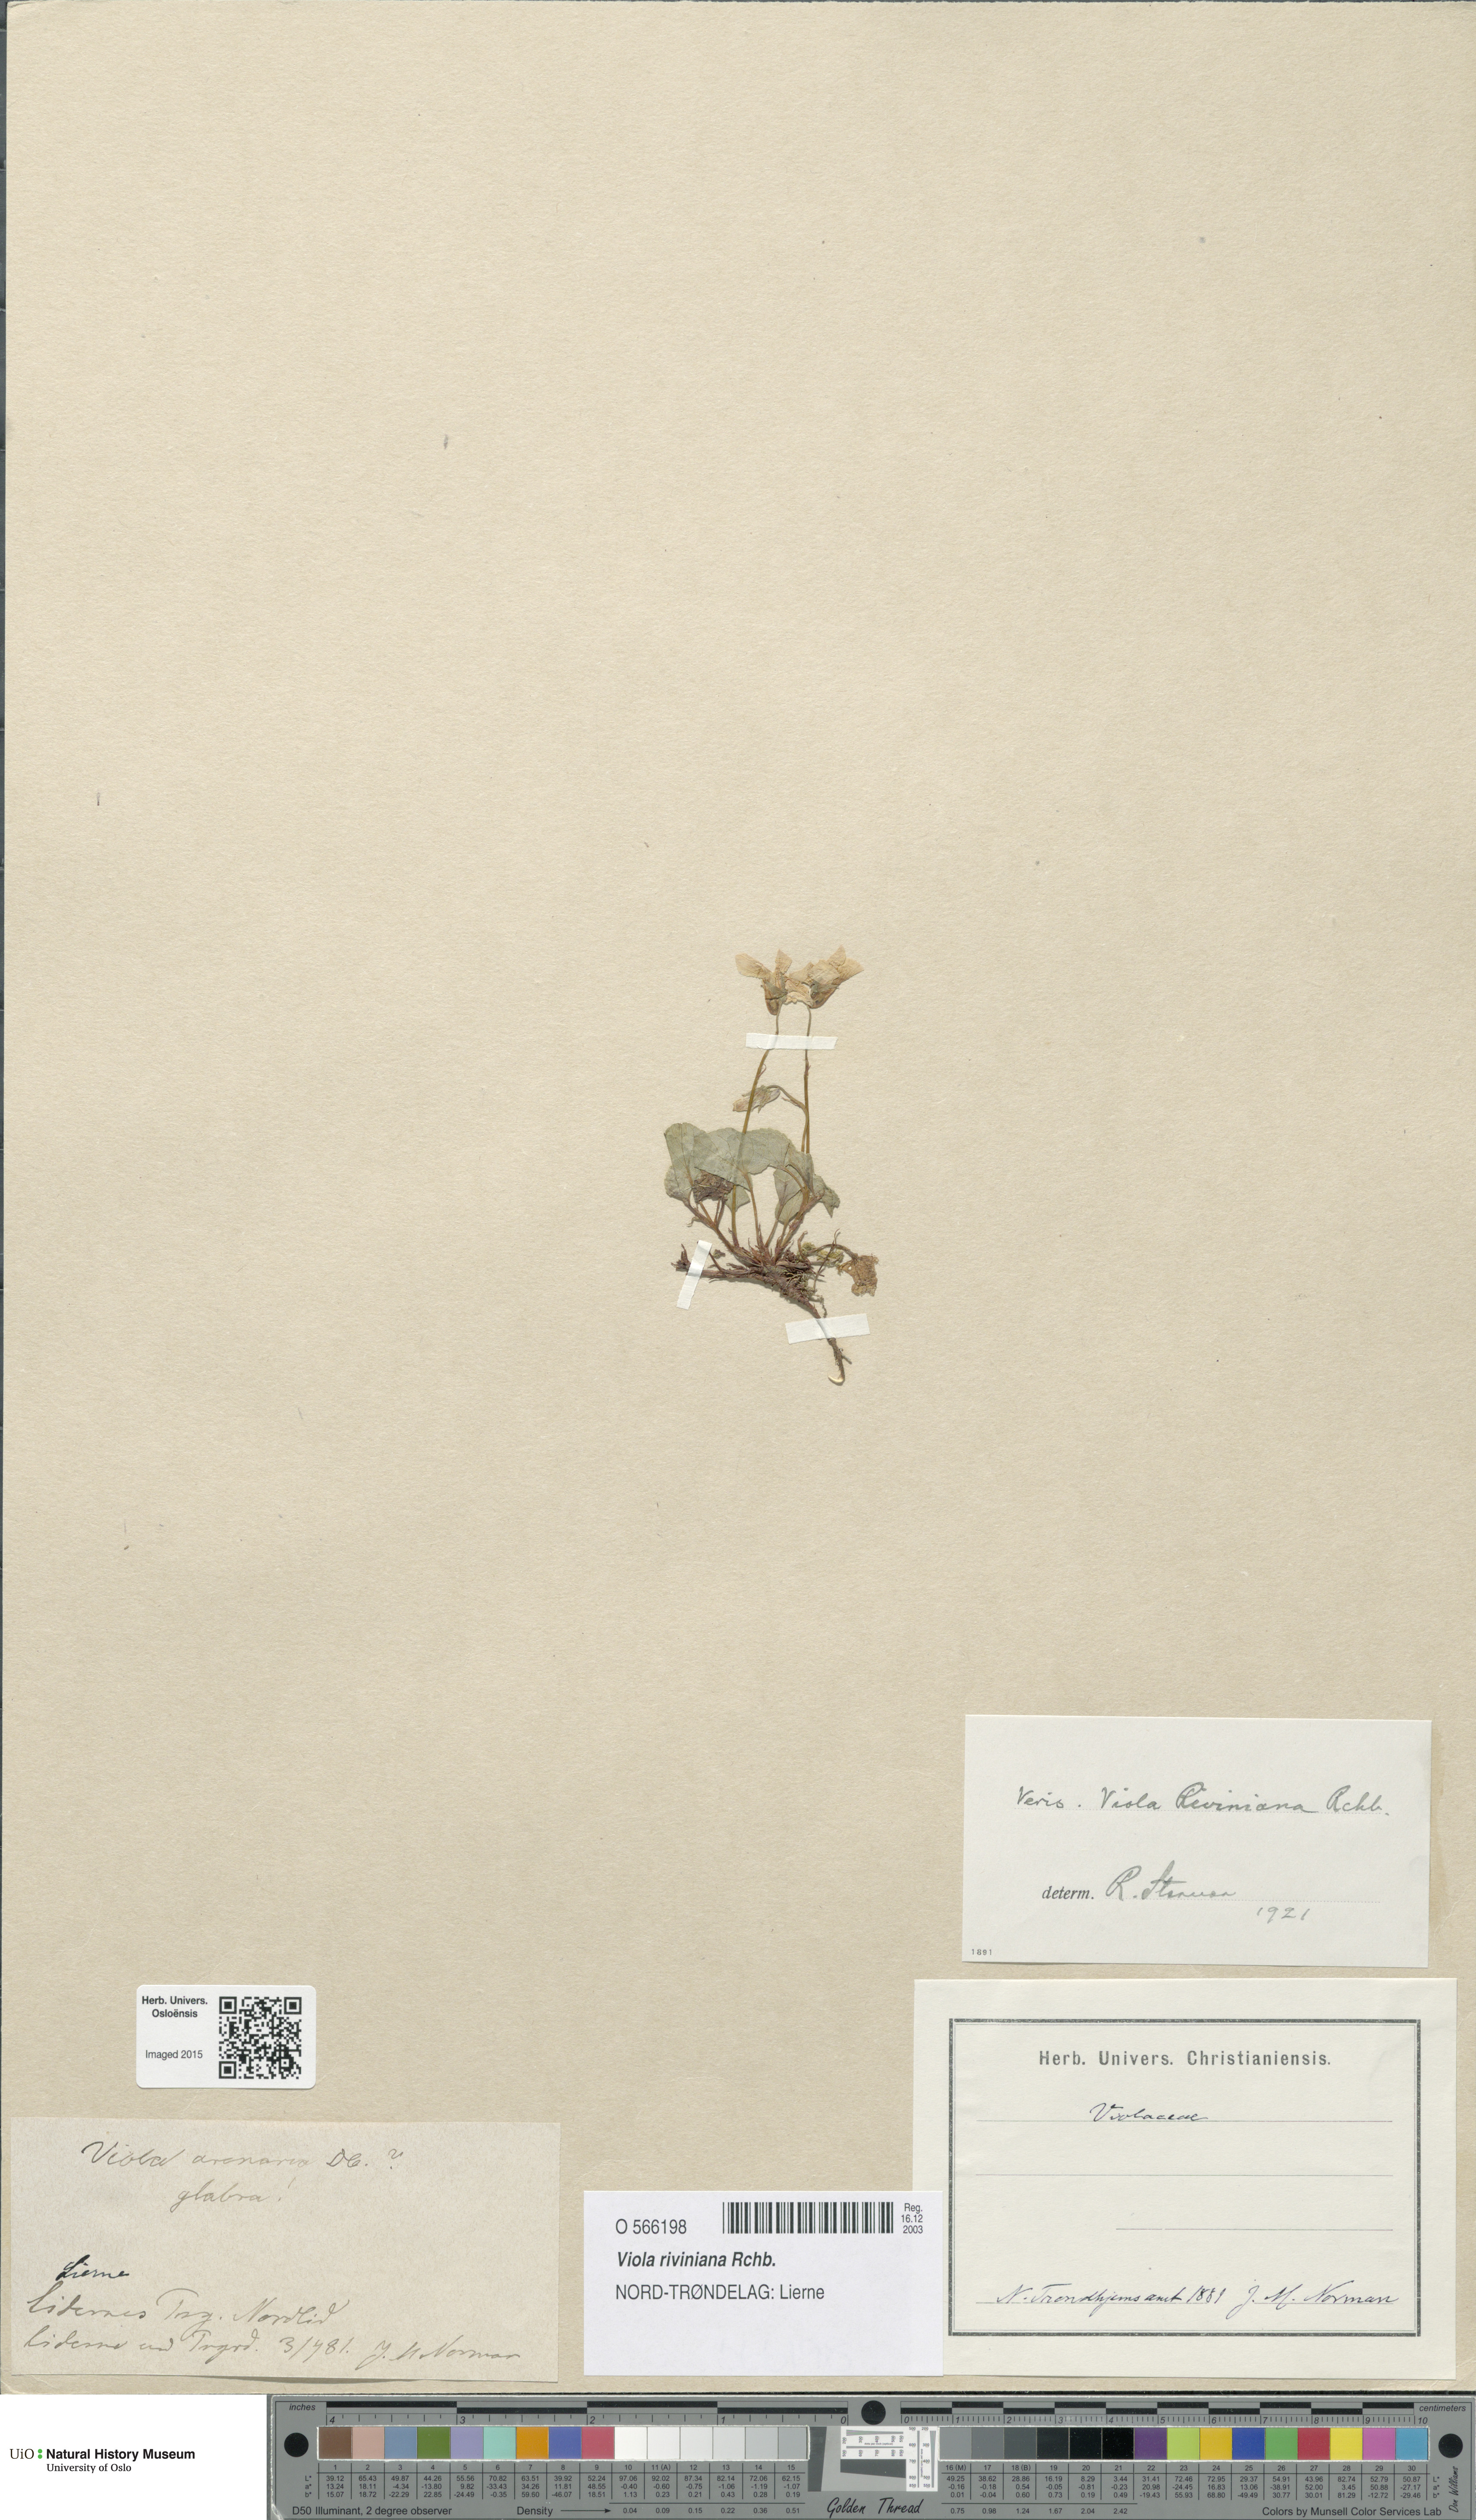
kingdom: Plantae
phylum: Tracheophyta
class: Magnoliopsida
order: Malpighiales
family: Violaceae
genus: Viola
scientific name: Viola riviniana
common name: Common dog-violet
